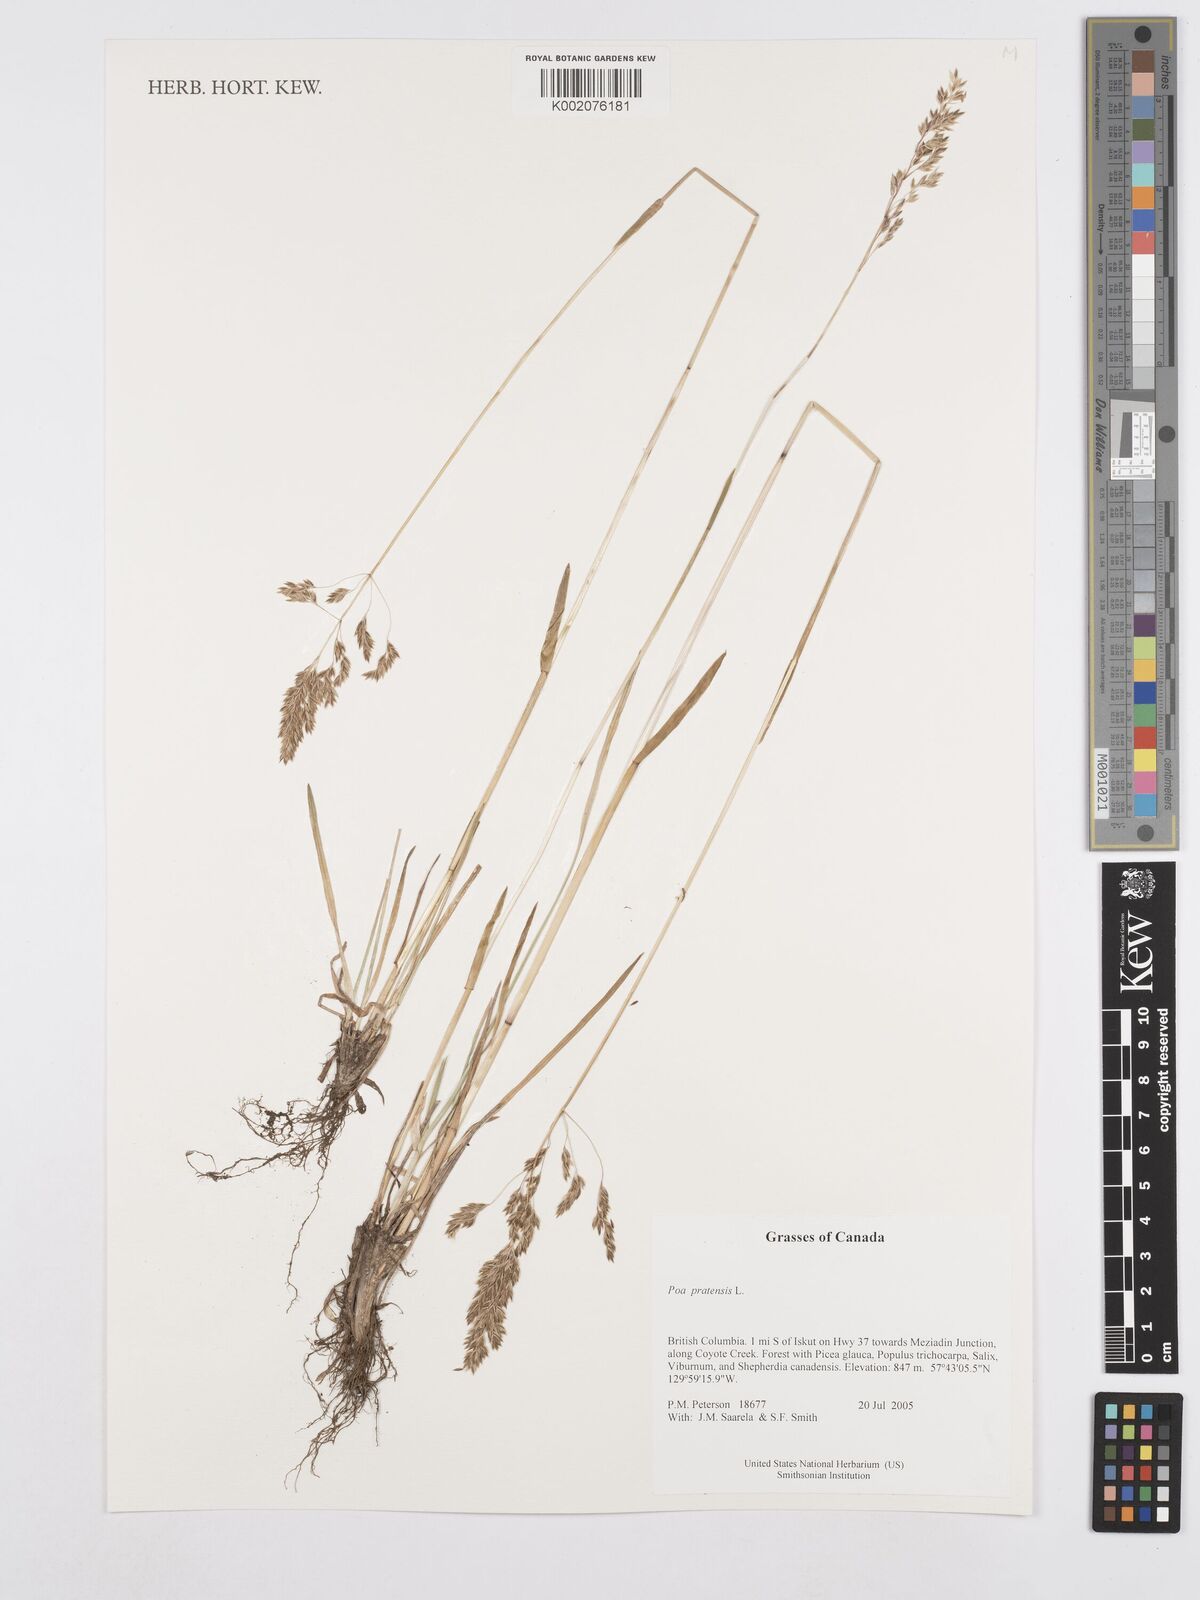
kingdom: Plantae
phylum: Tracheophyta
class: Liliopsida
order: Poales
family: Poaceae
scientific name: Poaceae
